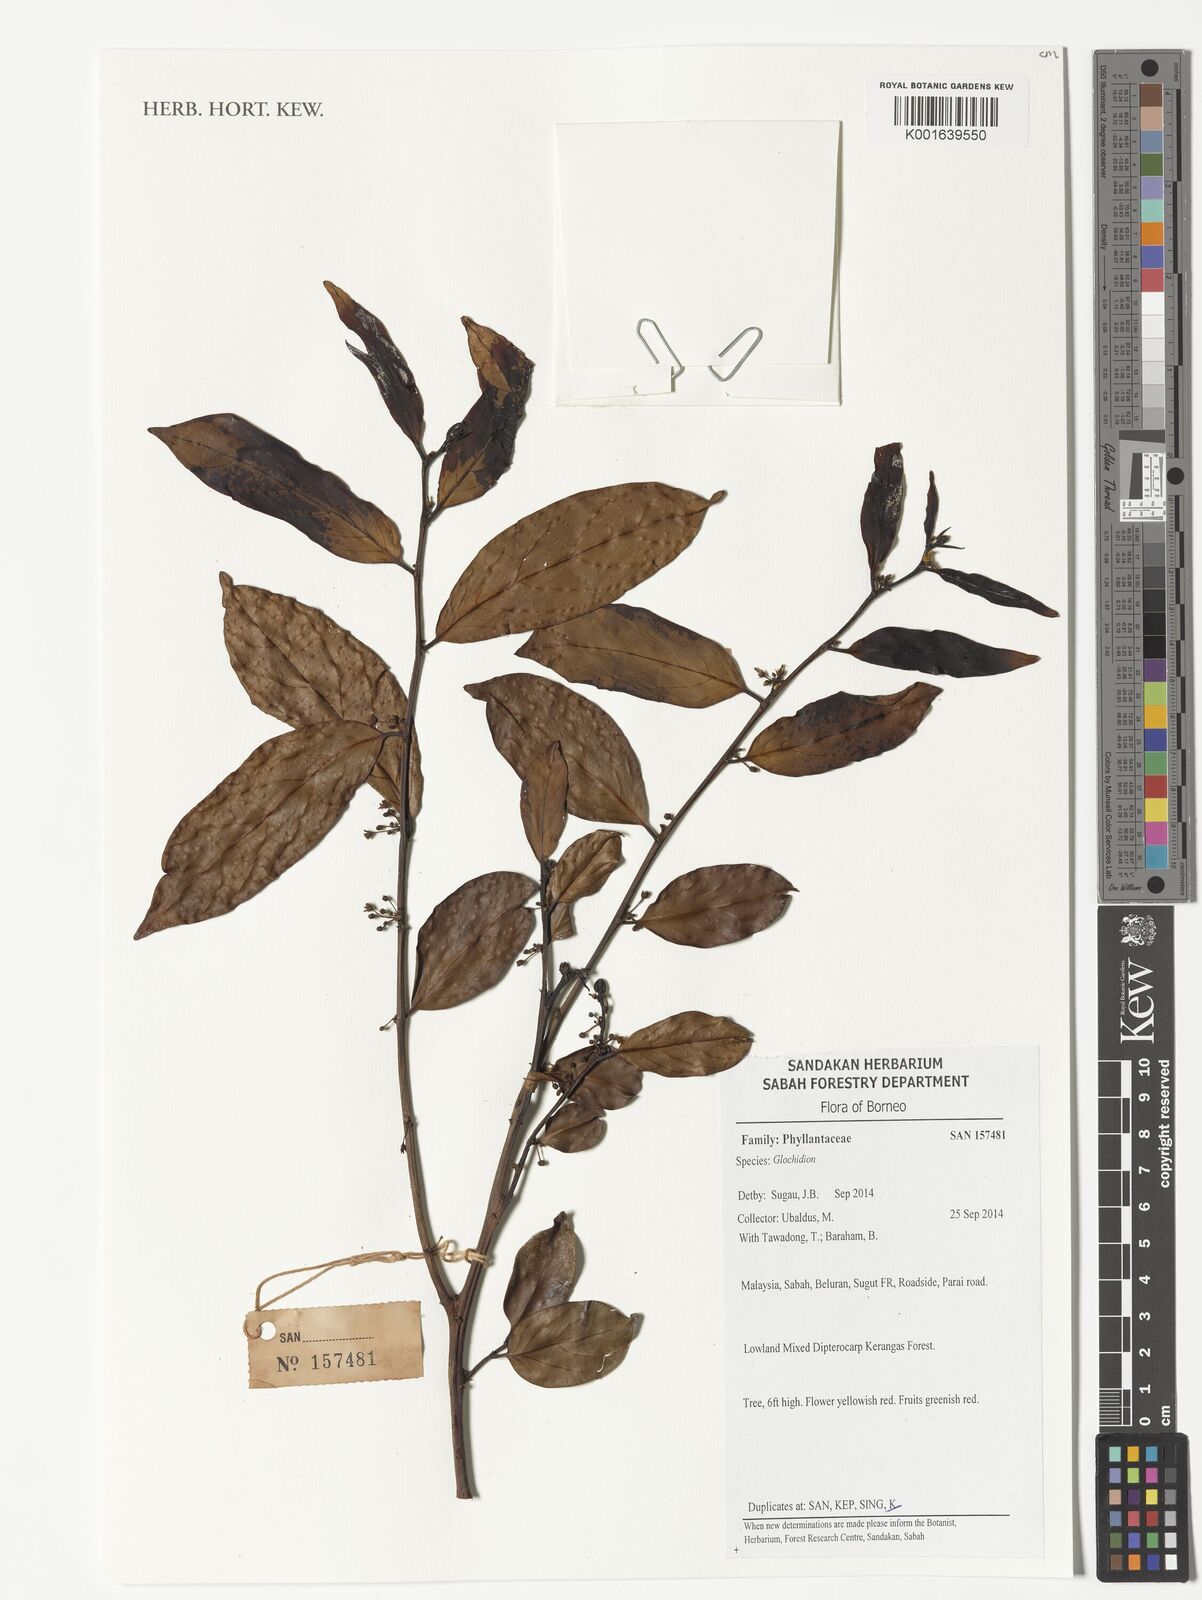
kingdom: Plantae
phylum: Tracheophyta
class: Magnoliopsida
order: Malpighiales
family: Phyllanthaceae
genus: Glochidion
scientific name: Glochidion
